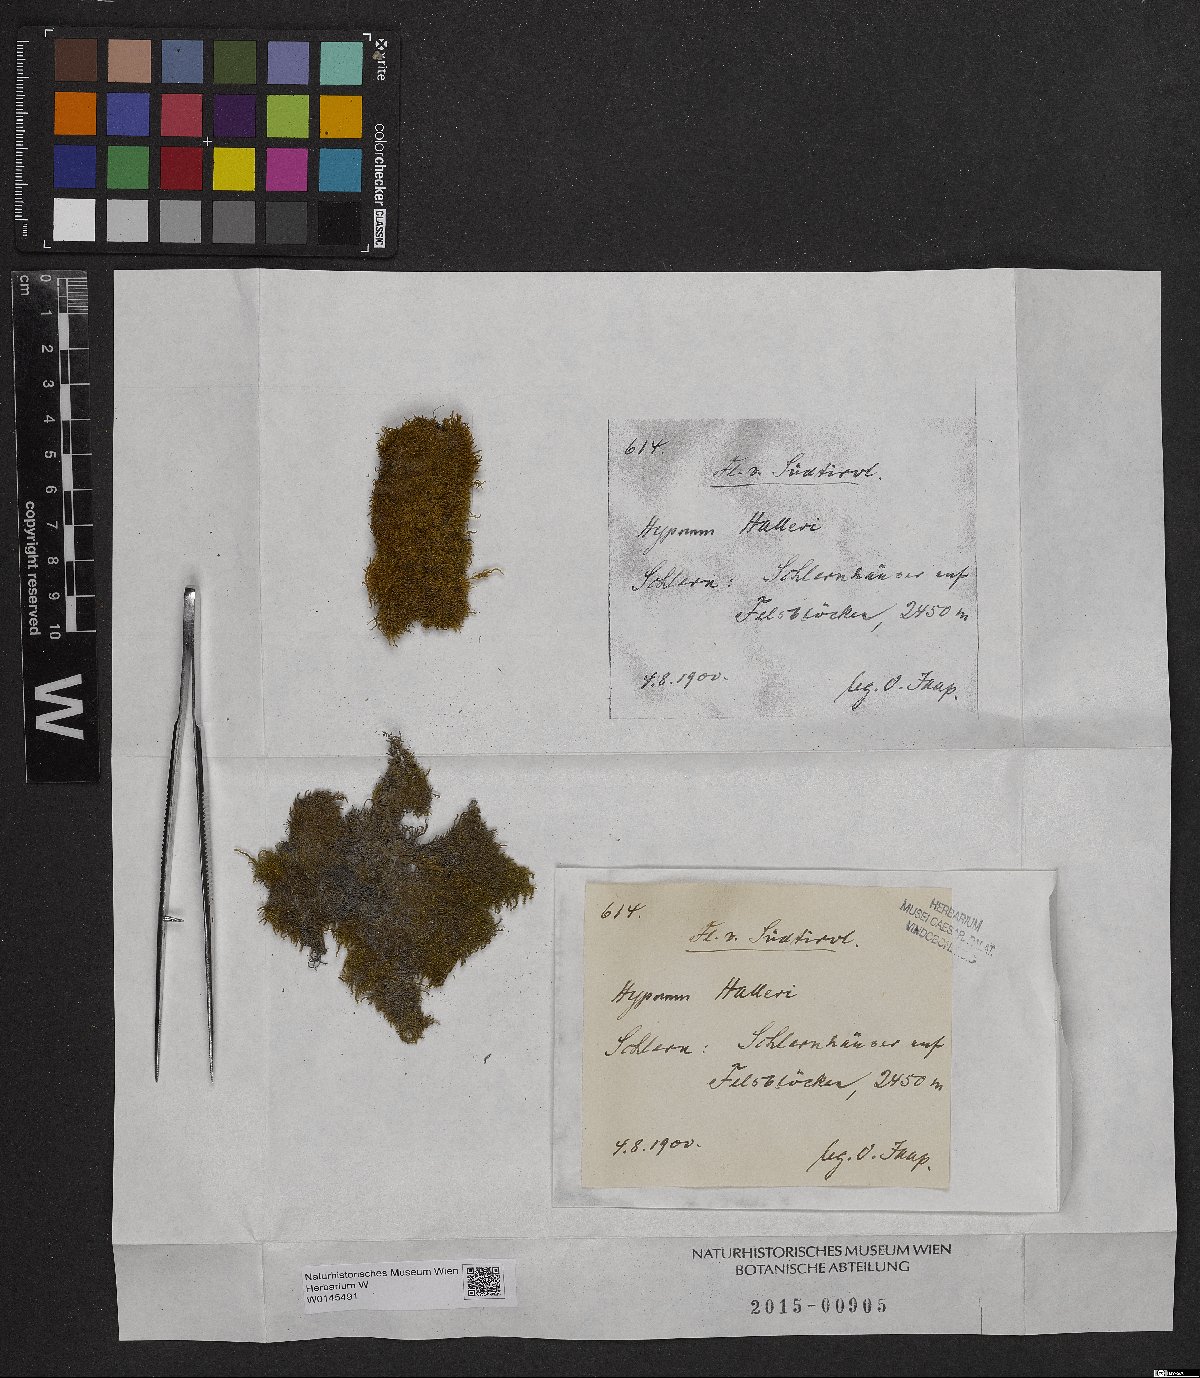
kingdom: Plantae
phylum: Bryophyta
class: Bryopsida
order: Hypnales
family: Amblystegiaceae
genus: Campylophyllum
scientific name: Campylophyllum halleri
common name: Haller's fine wet moss
